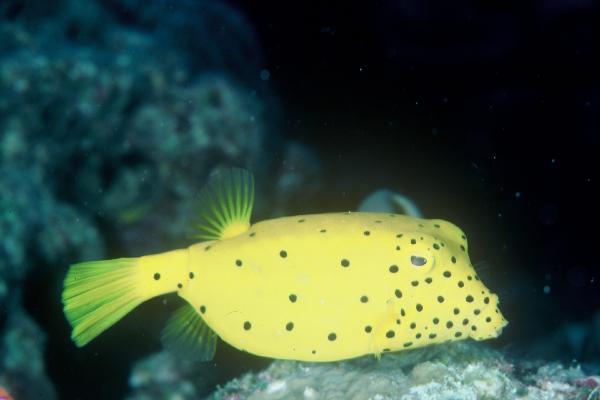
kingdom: Animalia
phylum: Chordata
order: Tetraodontiformes
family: Ostraciidae
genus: Ostracion
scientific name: Ostracion cubicus
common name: Cube trunkfish
